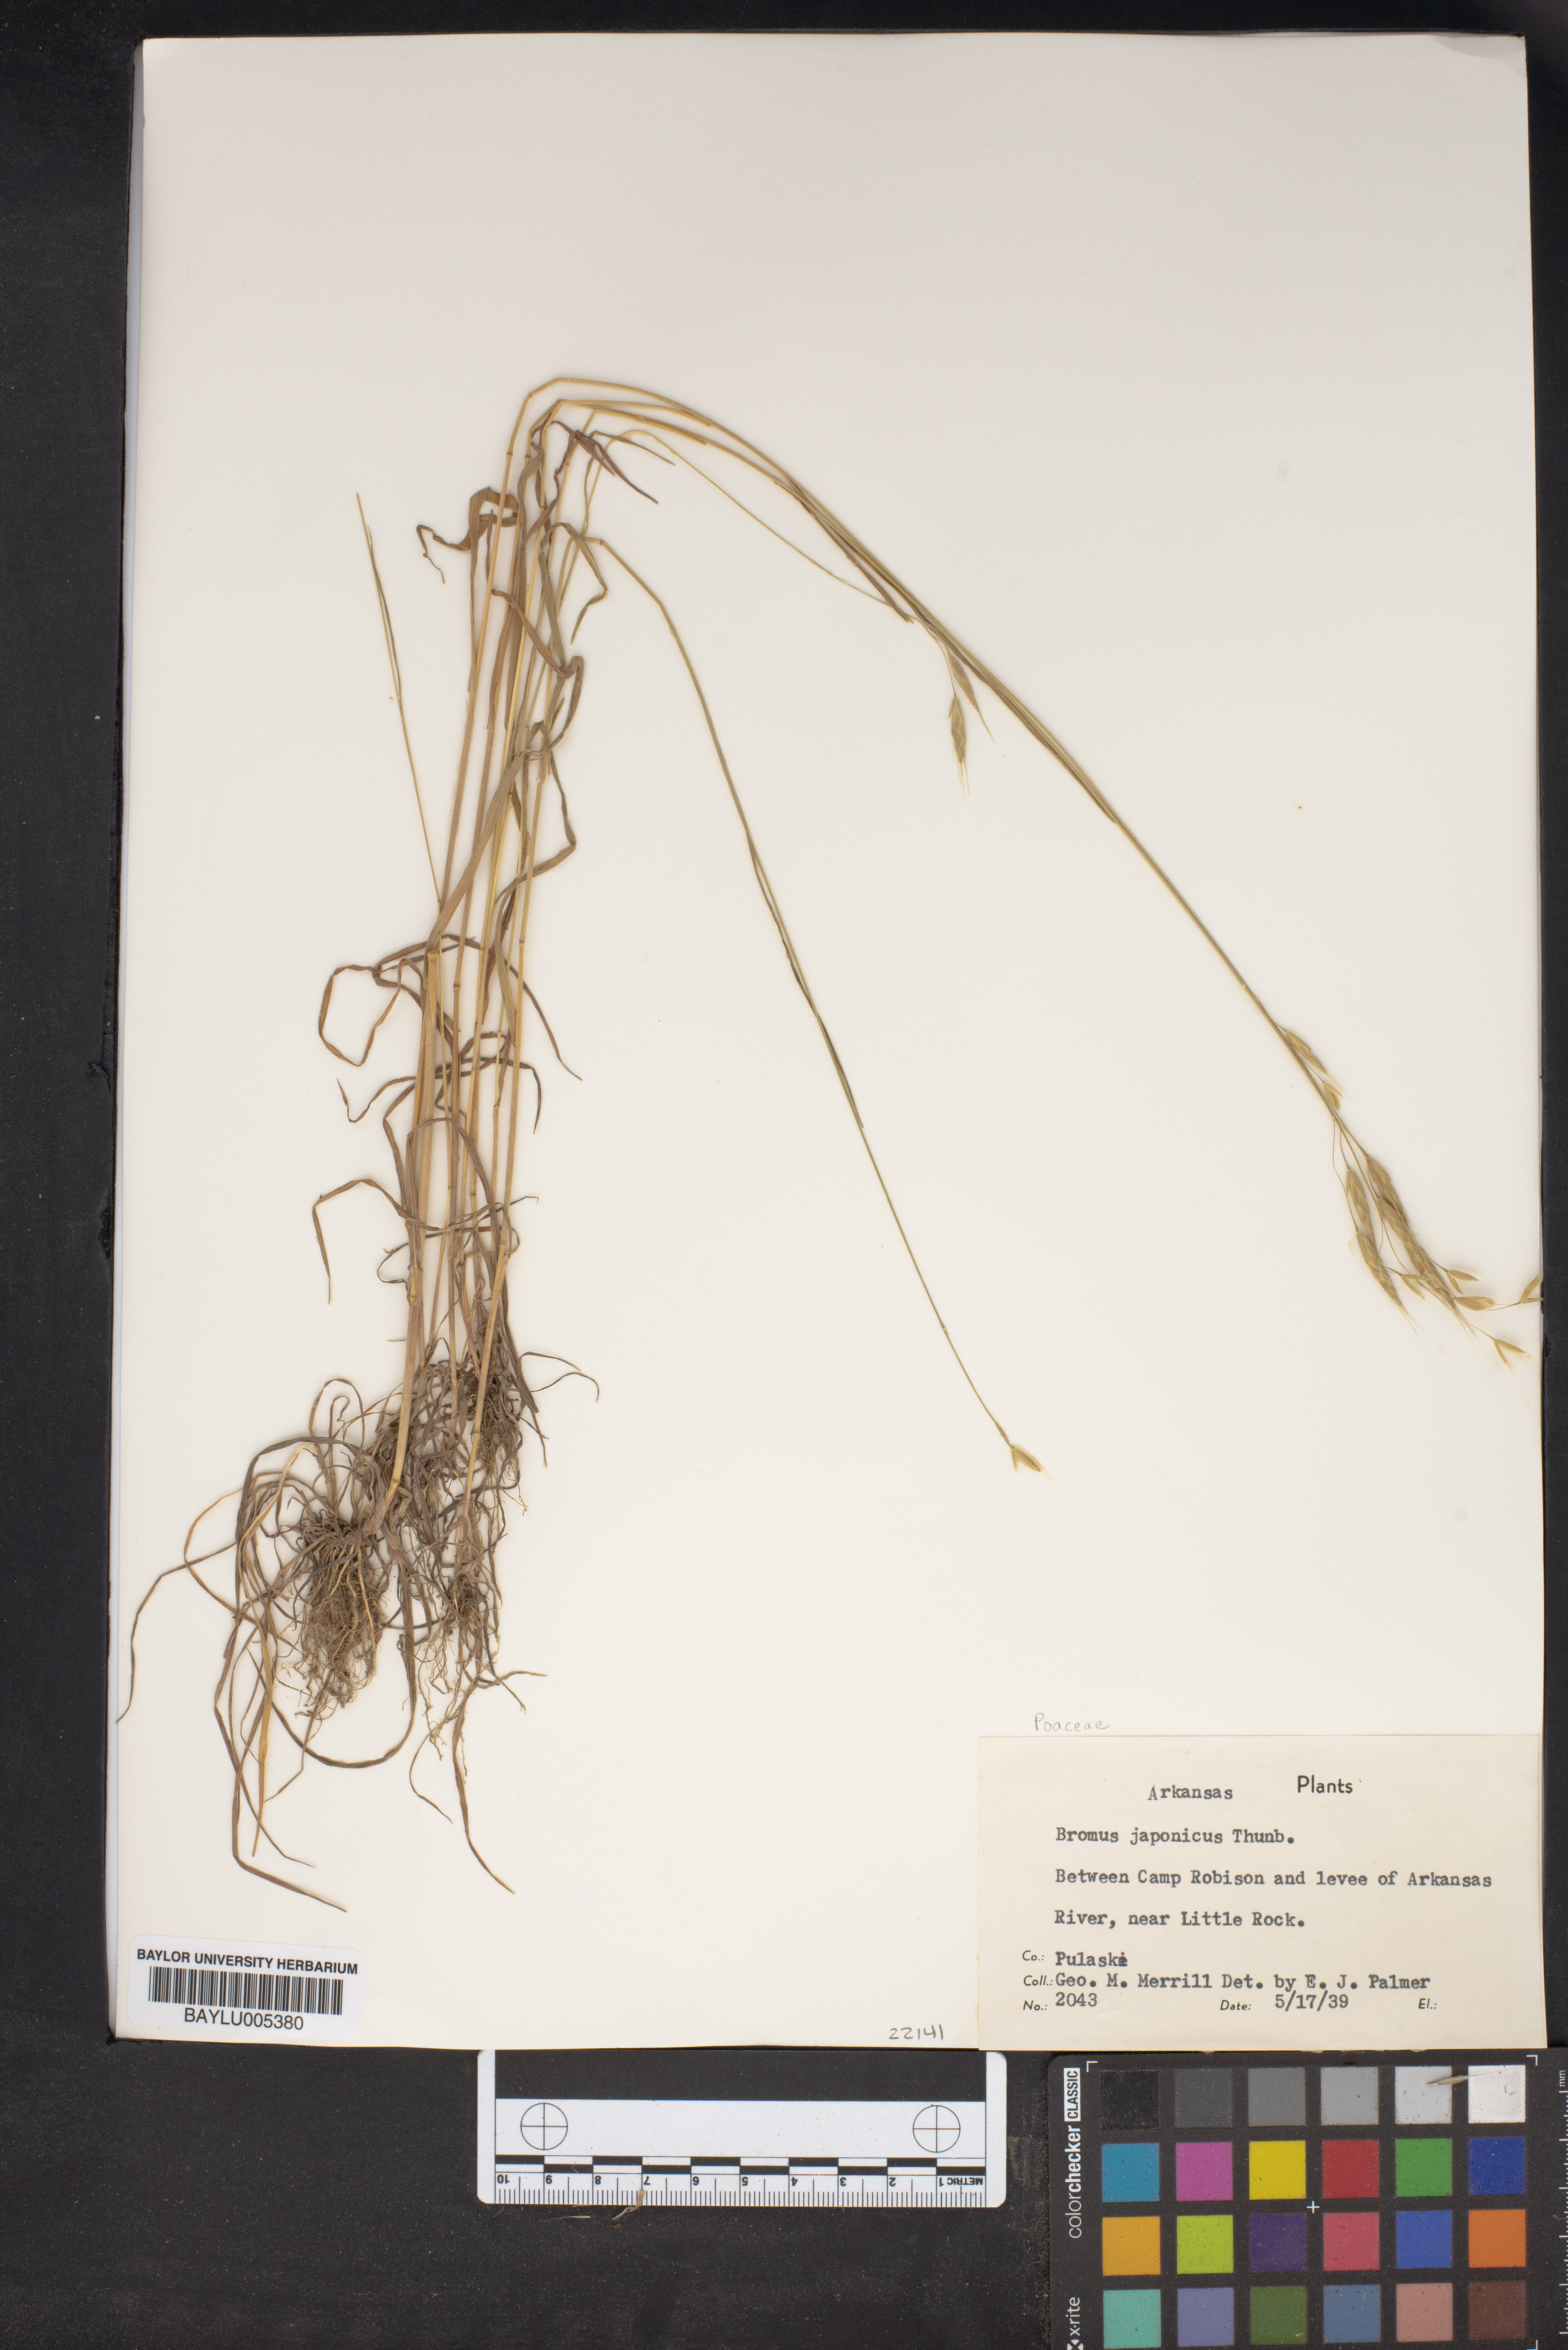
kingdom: Plantae
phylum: Tracheophyta
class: Liliopsida
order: Poales
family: Poaceae
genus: Bromus
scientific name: Bromus japonicus
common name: Japanese brome
